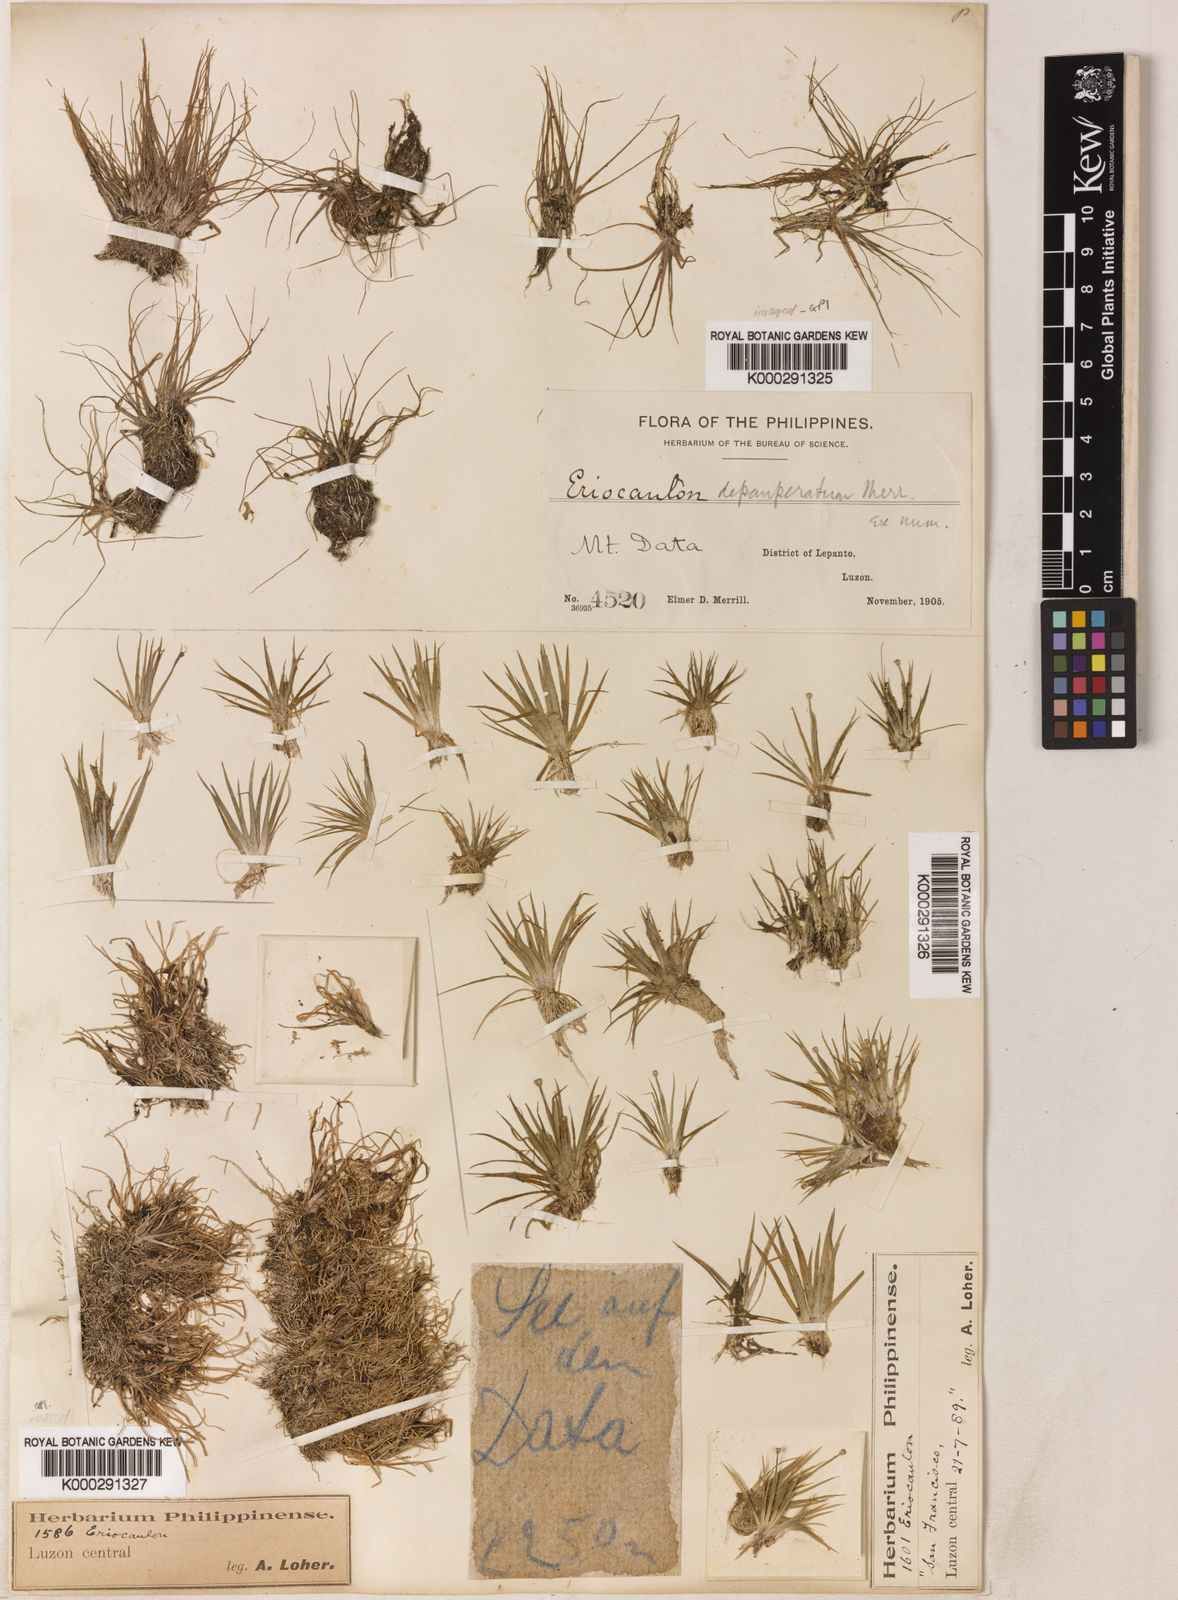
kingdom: Plantae
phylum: Tracheophyta
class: Liliopsida
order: Poales
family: Eriocaulaceae
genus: Eriocaulon
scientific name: Eriocaulon depauperatum
